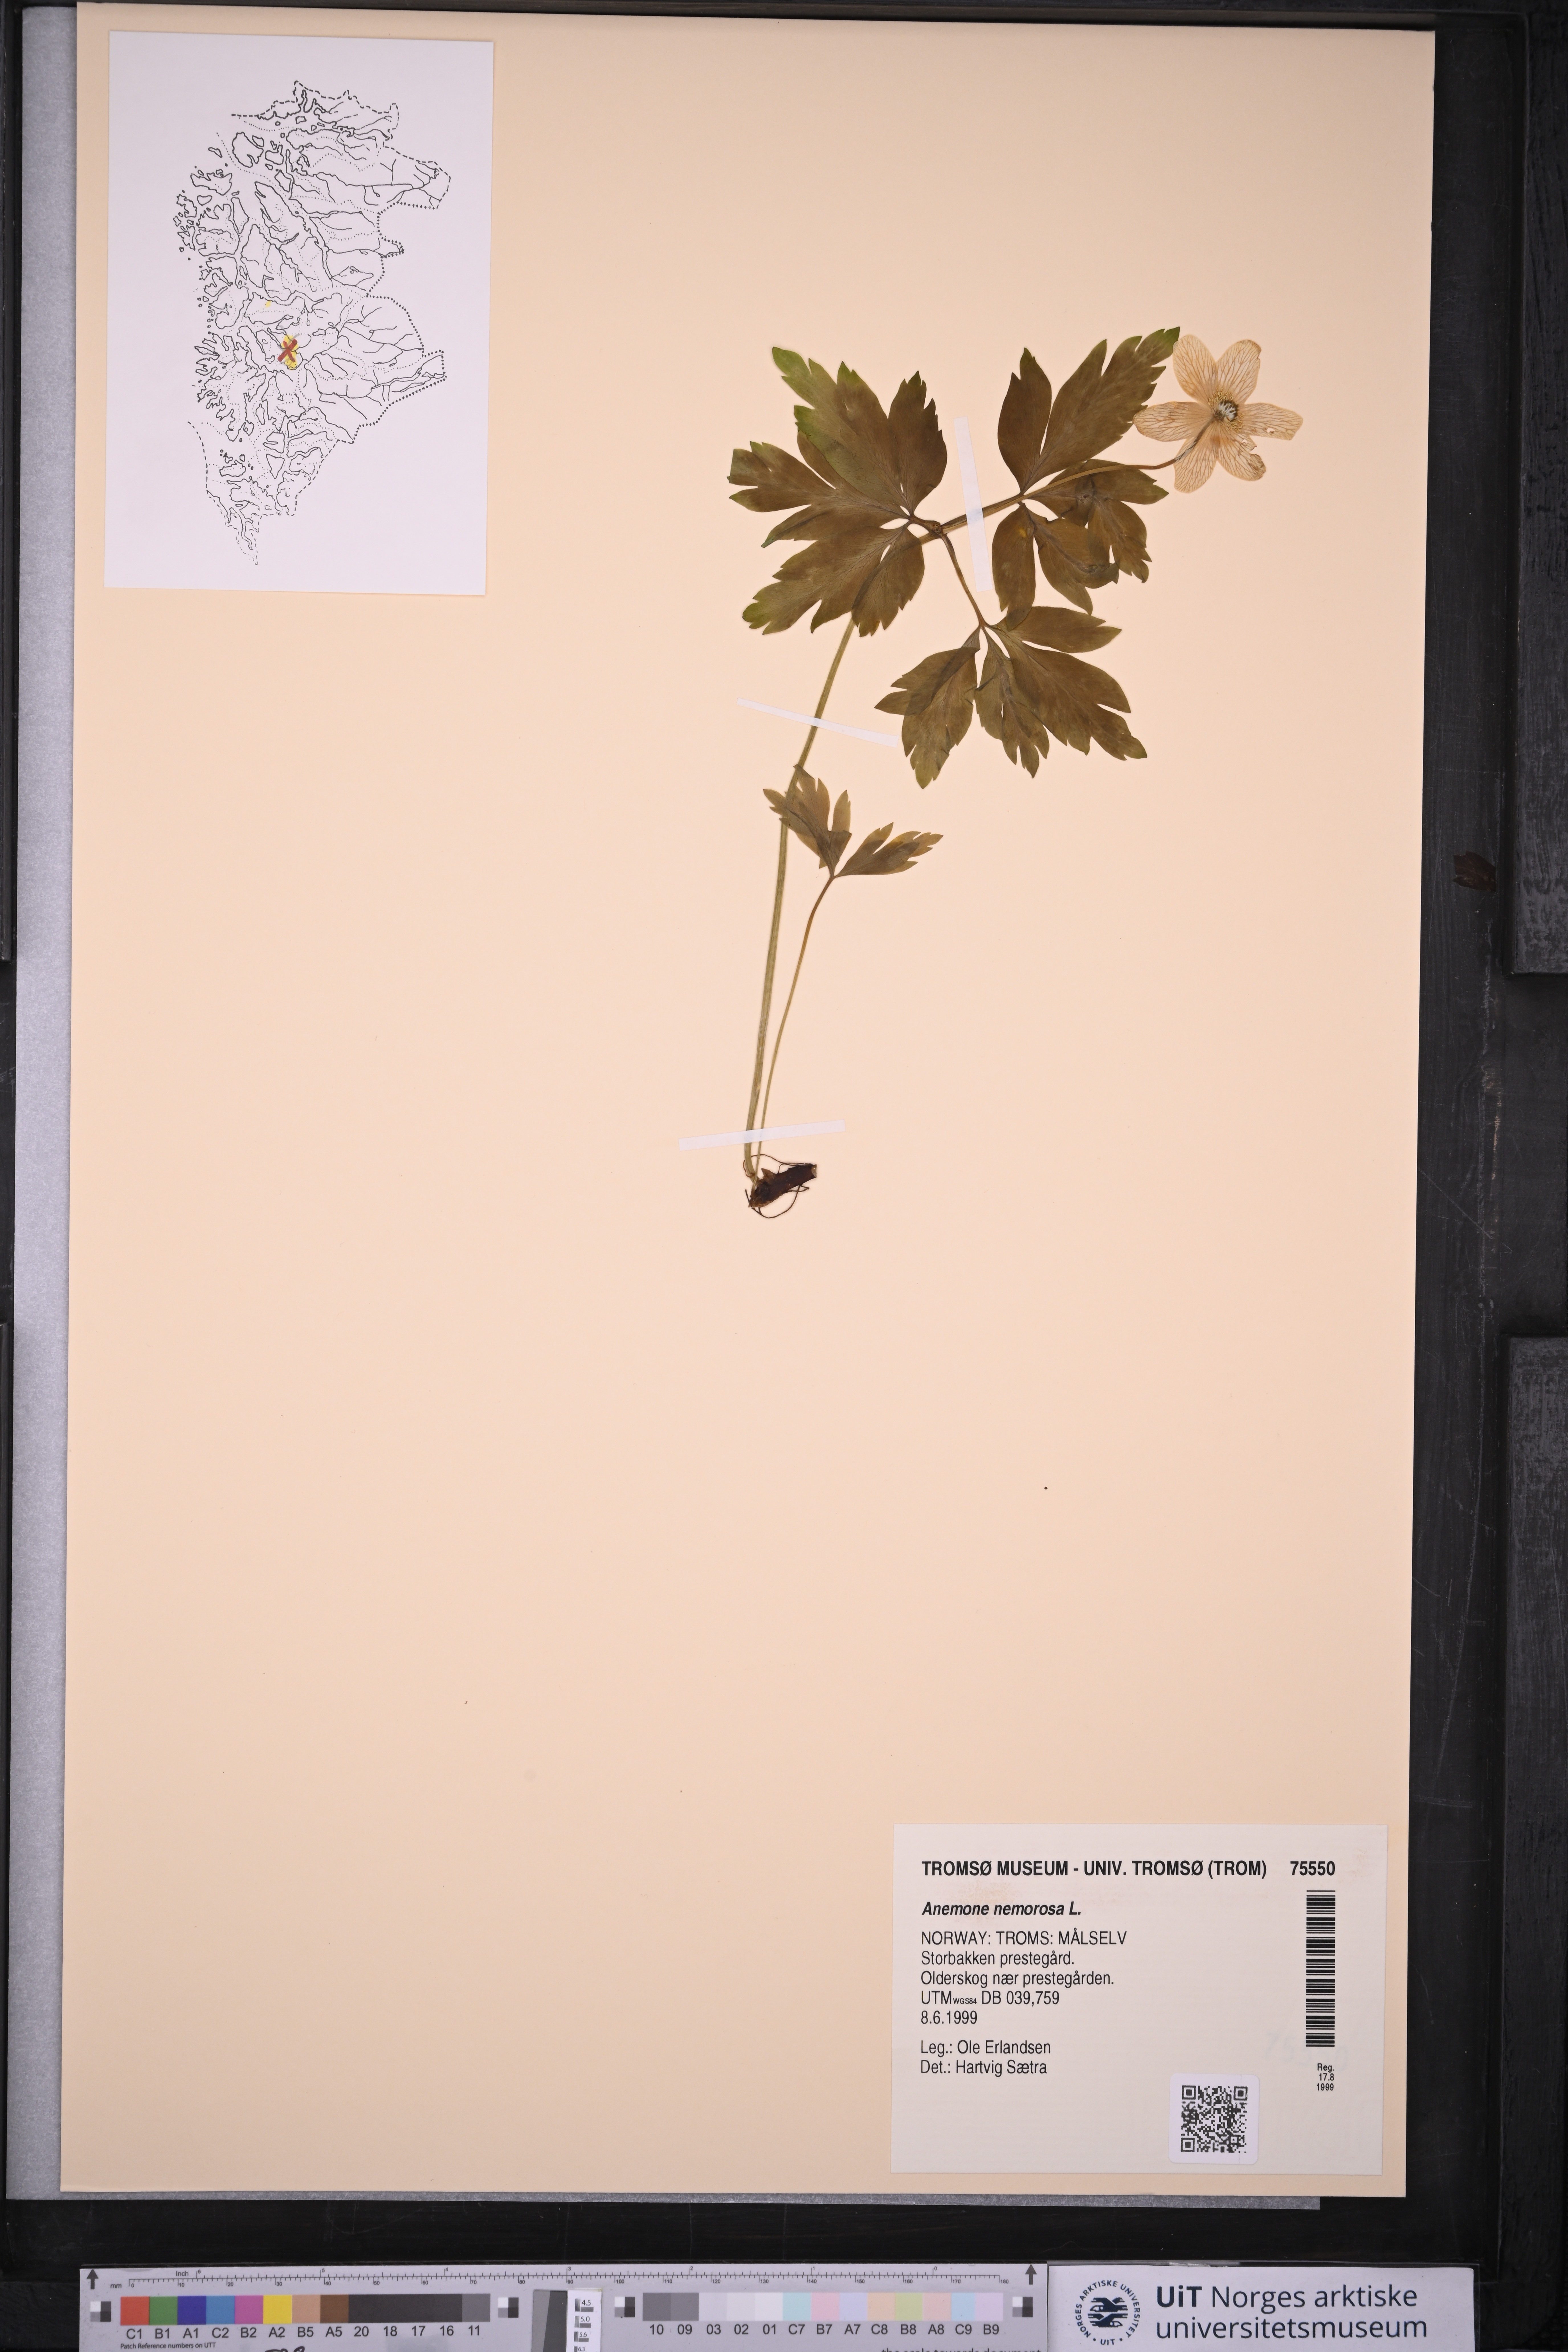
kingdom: Plantae
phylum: Tracheophyta
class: Magnoliopsida
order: Ranunculales
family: Ranunculaceae
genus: Anemone
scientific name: Anemone nemorosa
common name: Wood anemone
